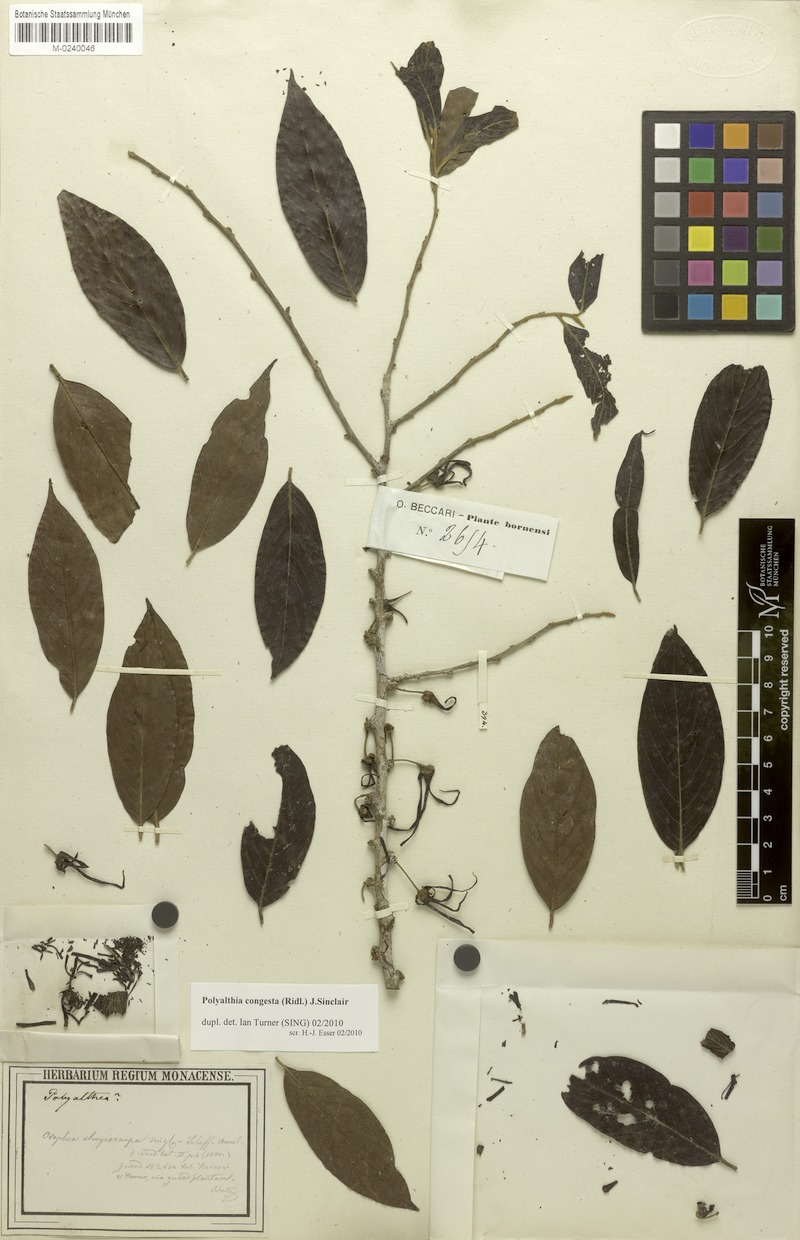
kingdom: Plantae
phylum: Tracheophyta
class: Magnoliopsida
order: Magnoliales
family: Annonaceae
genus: Polyalthia
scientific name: Polyalthia congesta
